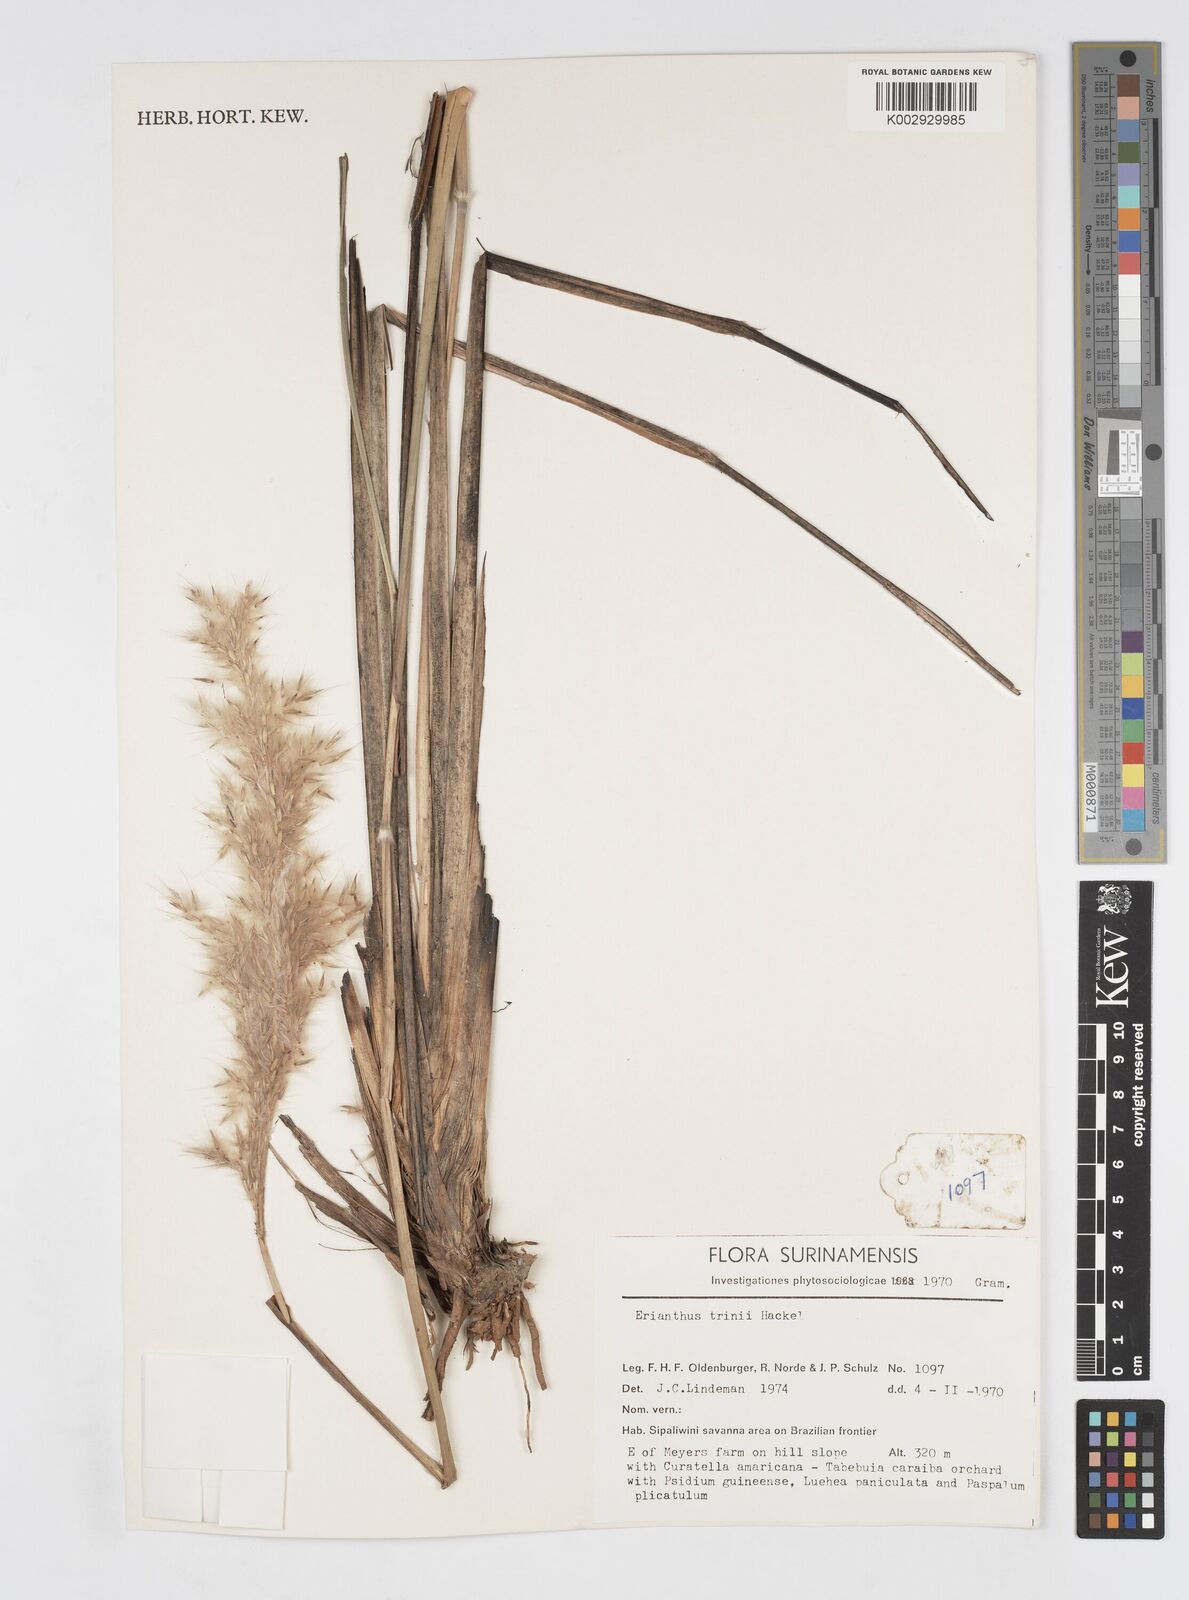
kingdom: Plantae
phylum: Tracheophyta
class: Liliopsida
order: Poales
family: Poaceae
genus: Erianthus
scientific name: Erianthus trinii
